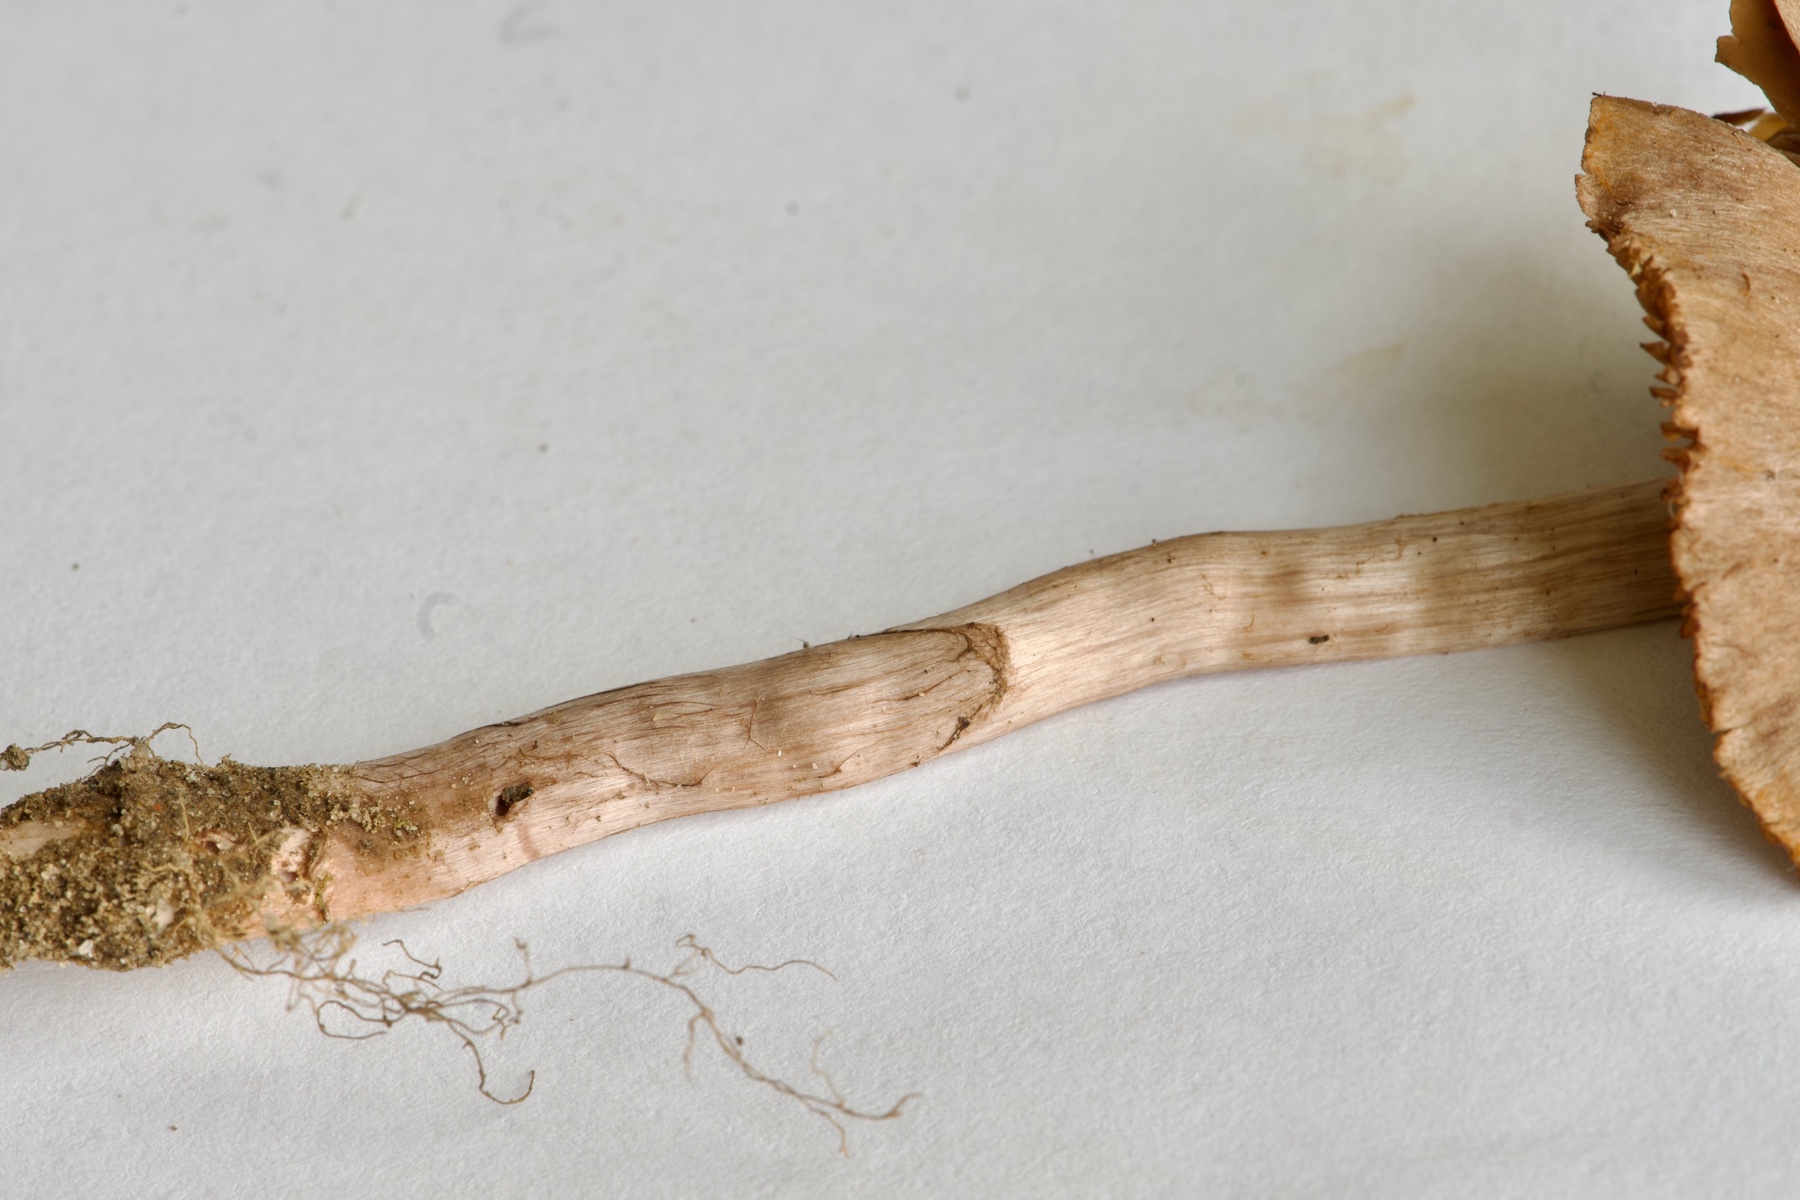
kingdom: Fungi
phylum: Basidiomycota
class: Agaricomycetes
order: Agaricales
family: Cortinariaceae
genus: Cortinarius
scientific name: Cortinarius vernus
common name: sommer-slørhat
